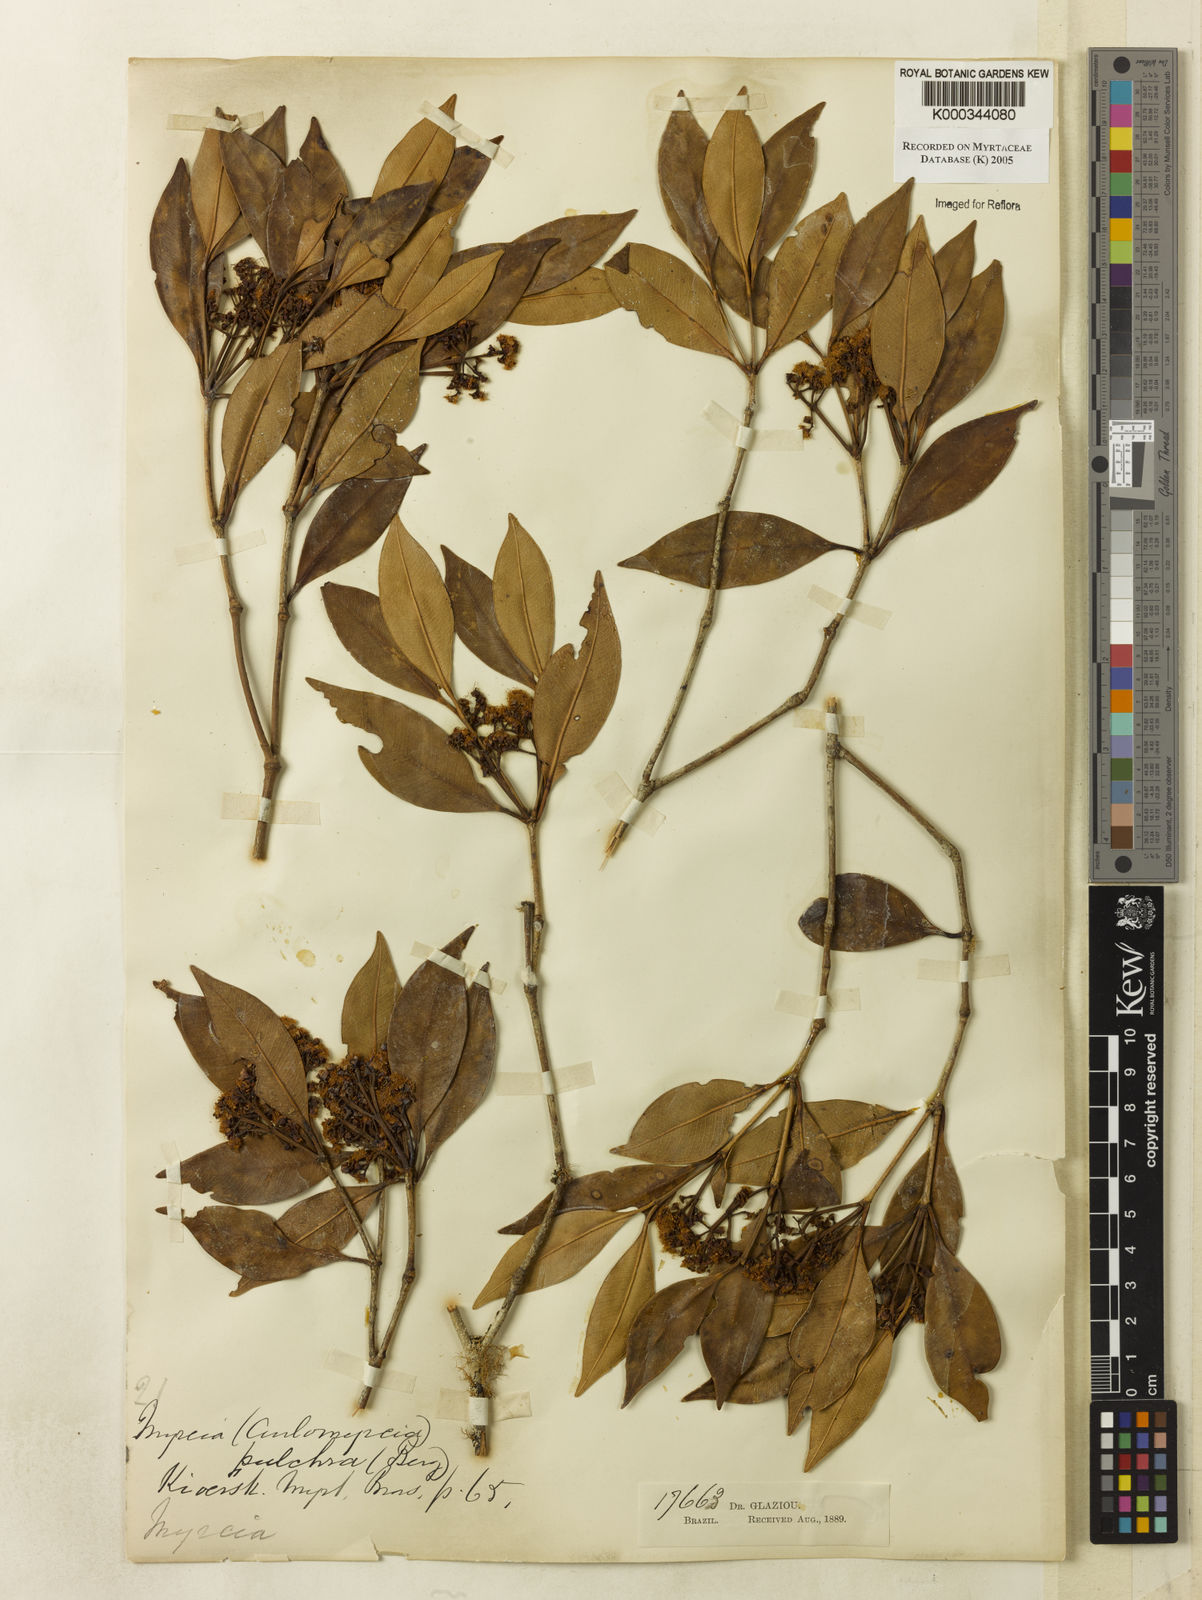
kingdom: Plantae
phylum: Tracheophyta
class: Magnoliopsida
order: Myrtales
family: Myrtaceae
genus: Myrcia
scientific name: Myrcia pulchra
